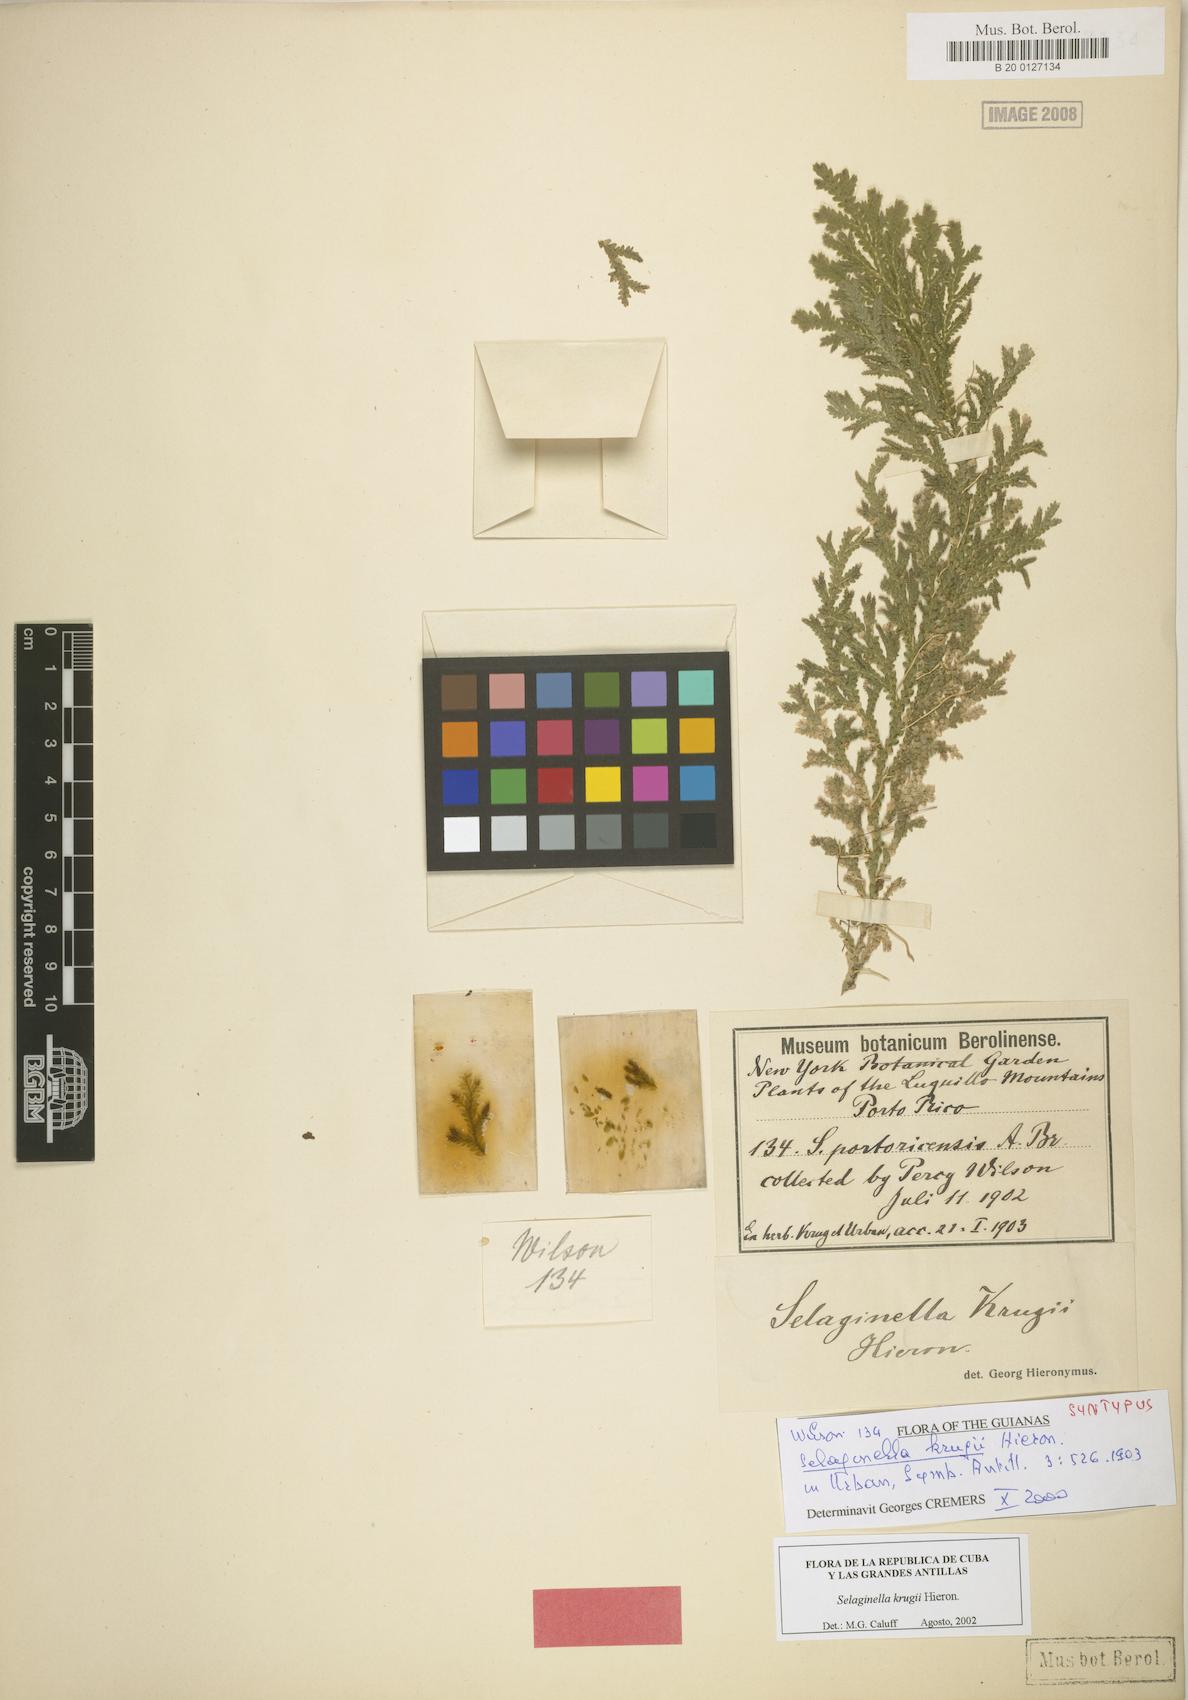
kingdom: Plantae
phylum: Tracheophyta
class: Lycopodiopsida
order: Selaginellales
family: Selaginellaceae
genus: Selaginella
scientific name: Selaginella krugii
